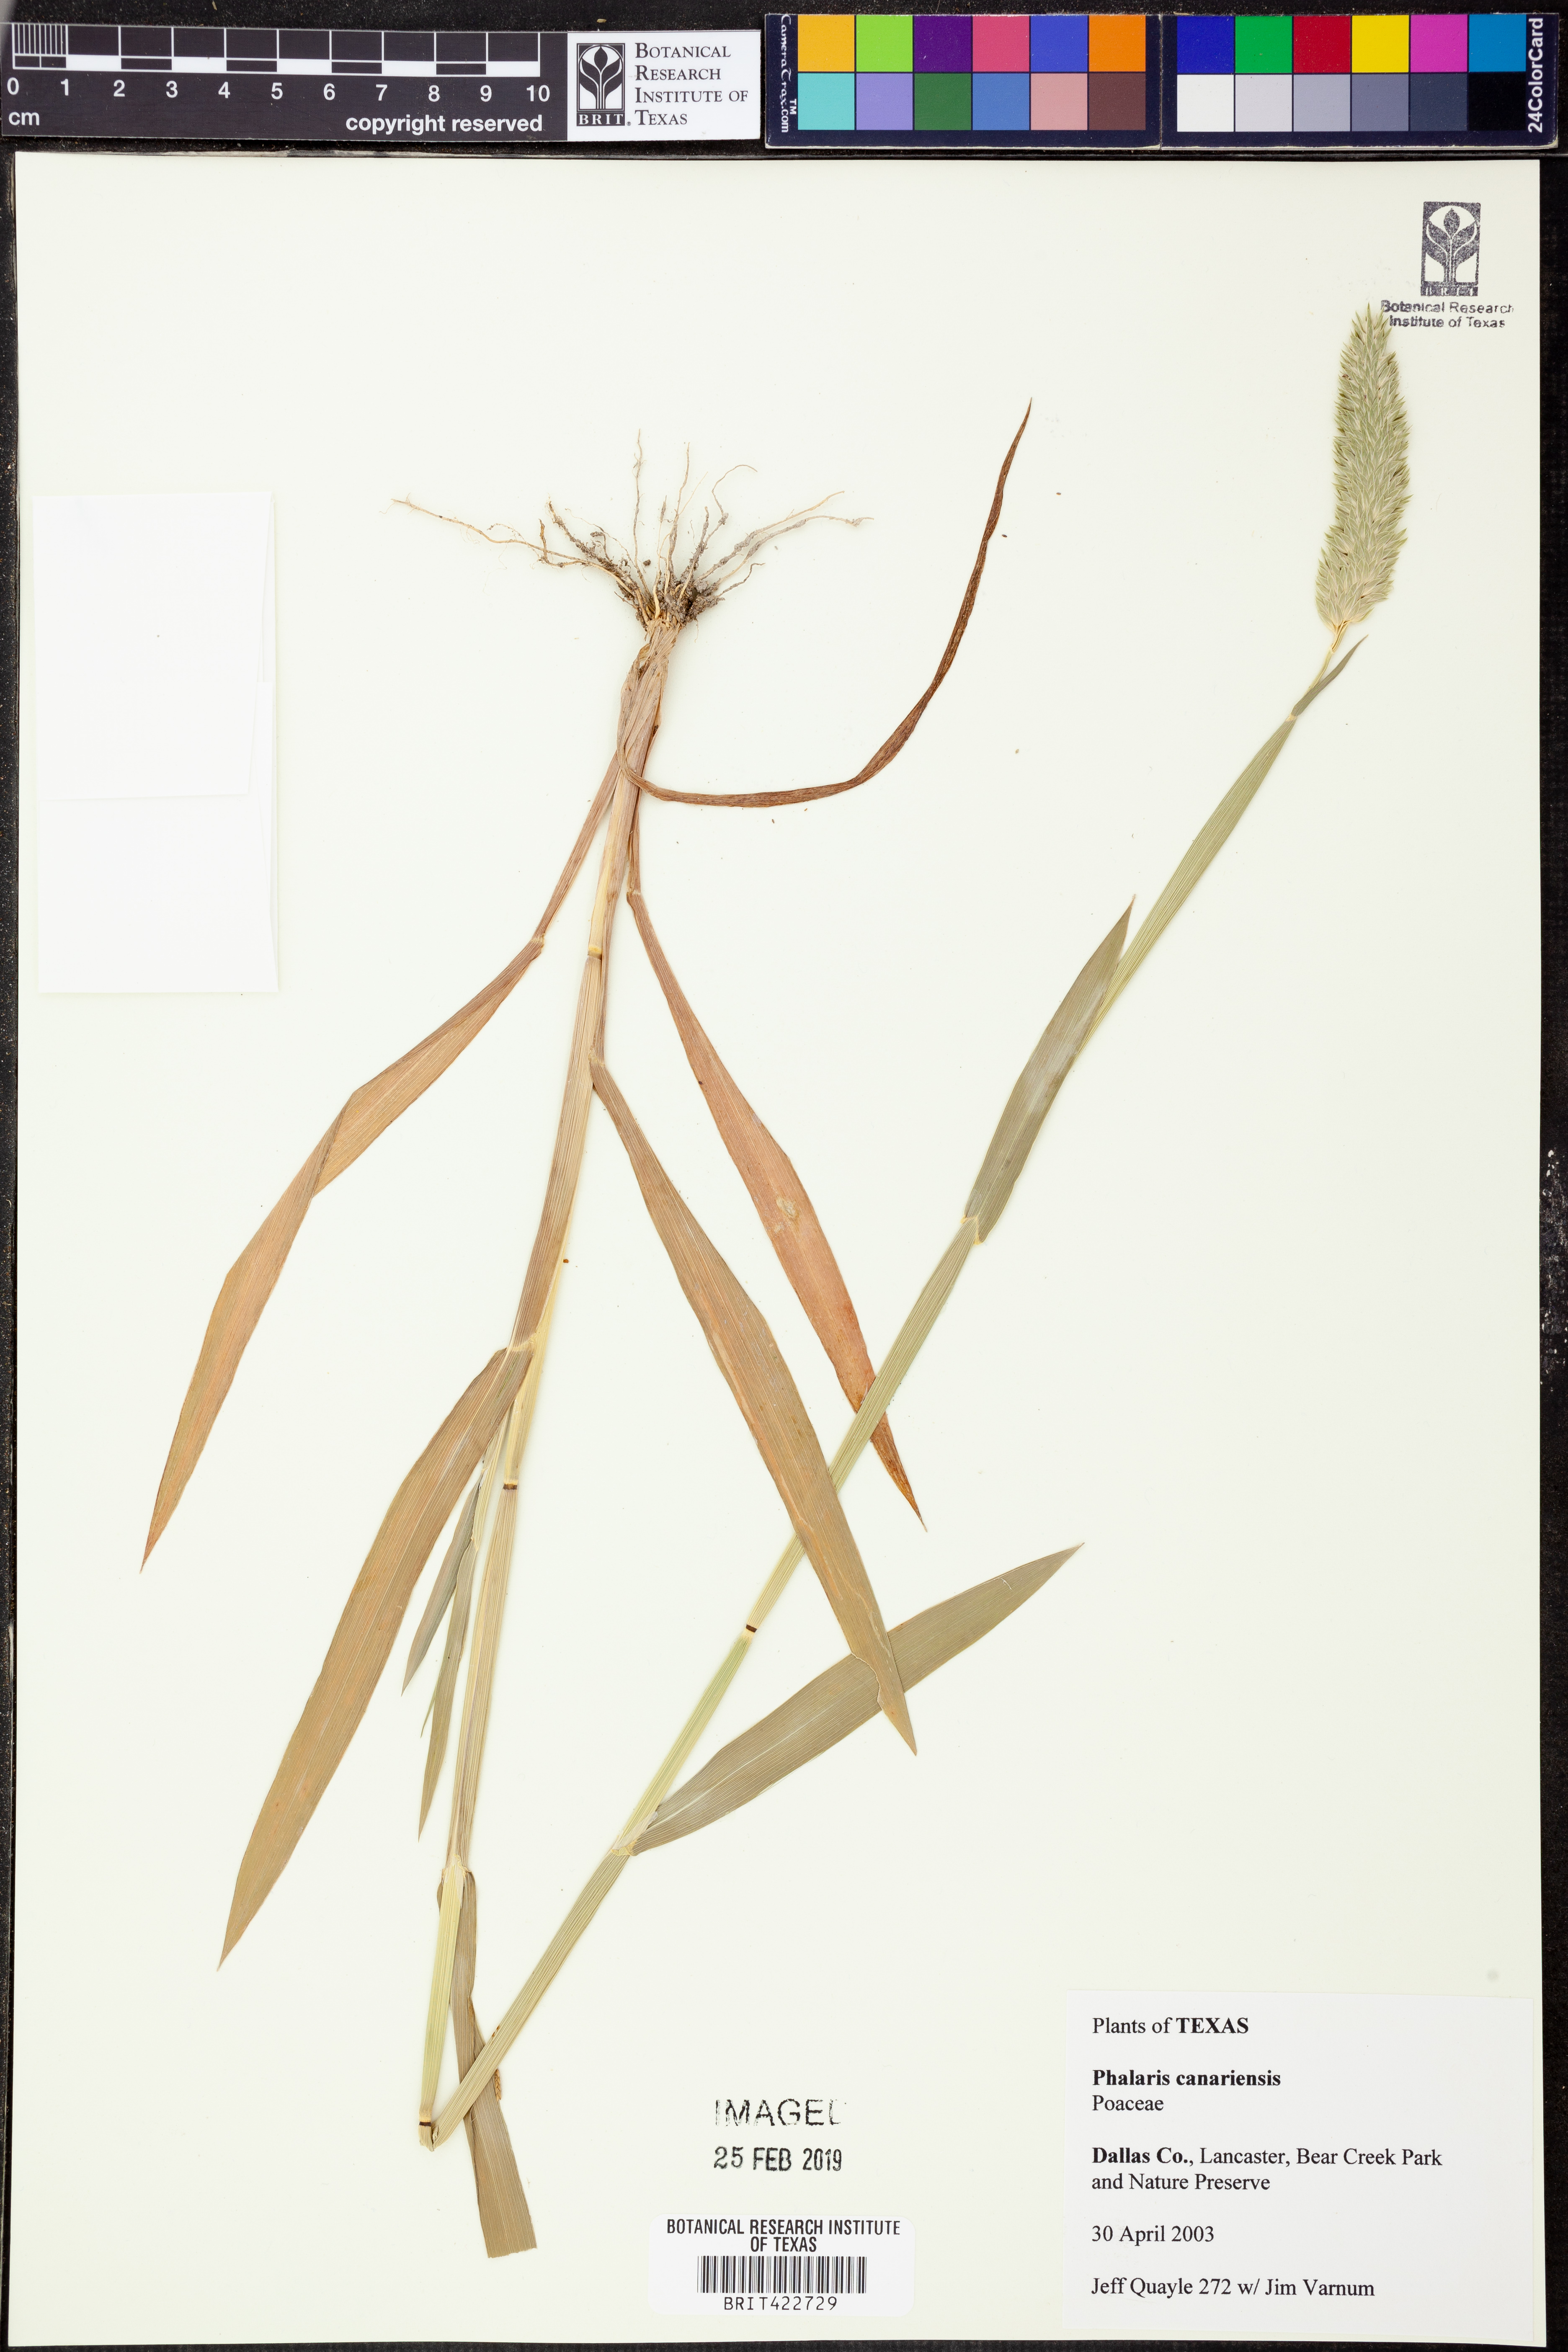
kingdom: Plantae
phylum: Tracheophyta
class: Liliopsida
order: Poales
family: Poaceae
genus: Phalaris
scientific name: Phalaris canariensis
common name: Annual canarygrass
